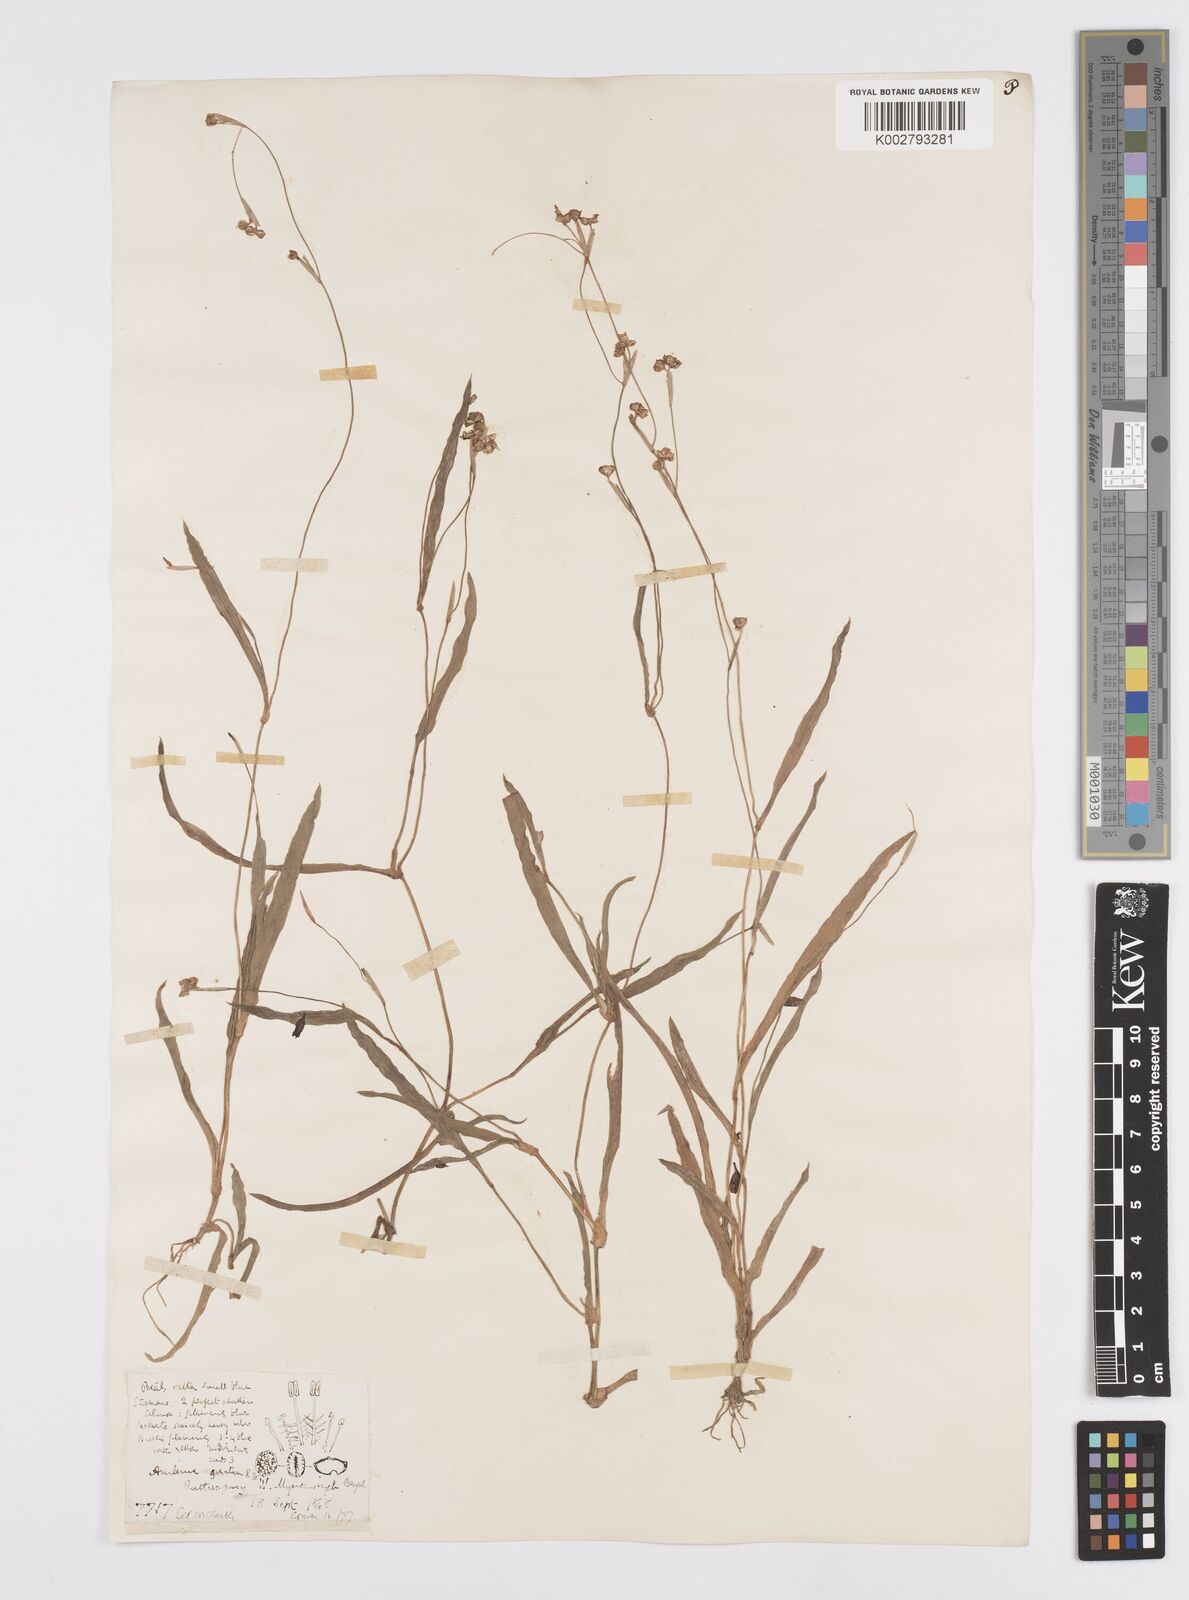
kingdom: Plantae
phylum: Tracheophyta
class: Liliopsida
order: Commelinales
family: Commelinaceae
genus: Murdannia
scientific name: Murdannia
